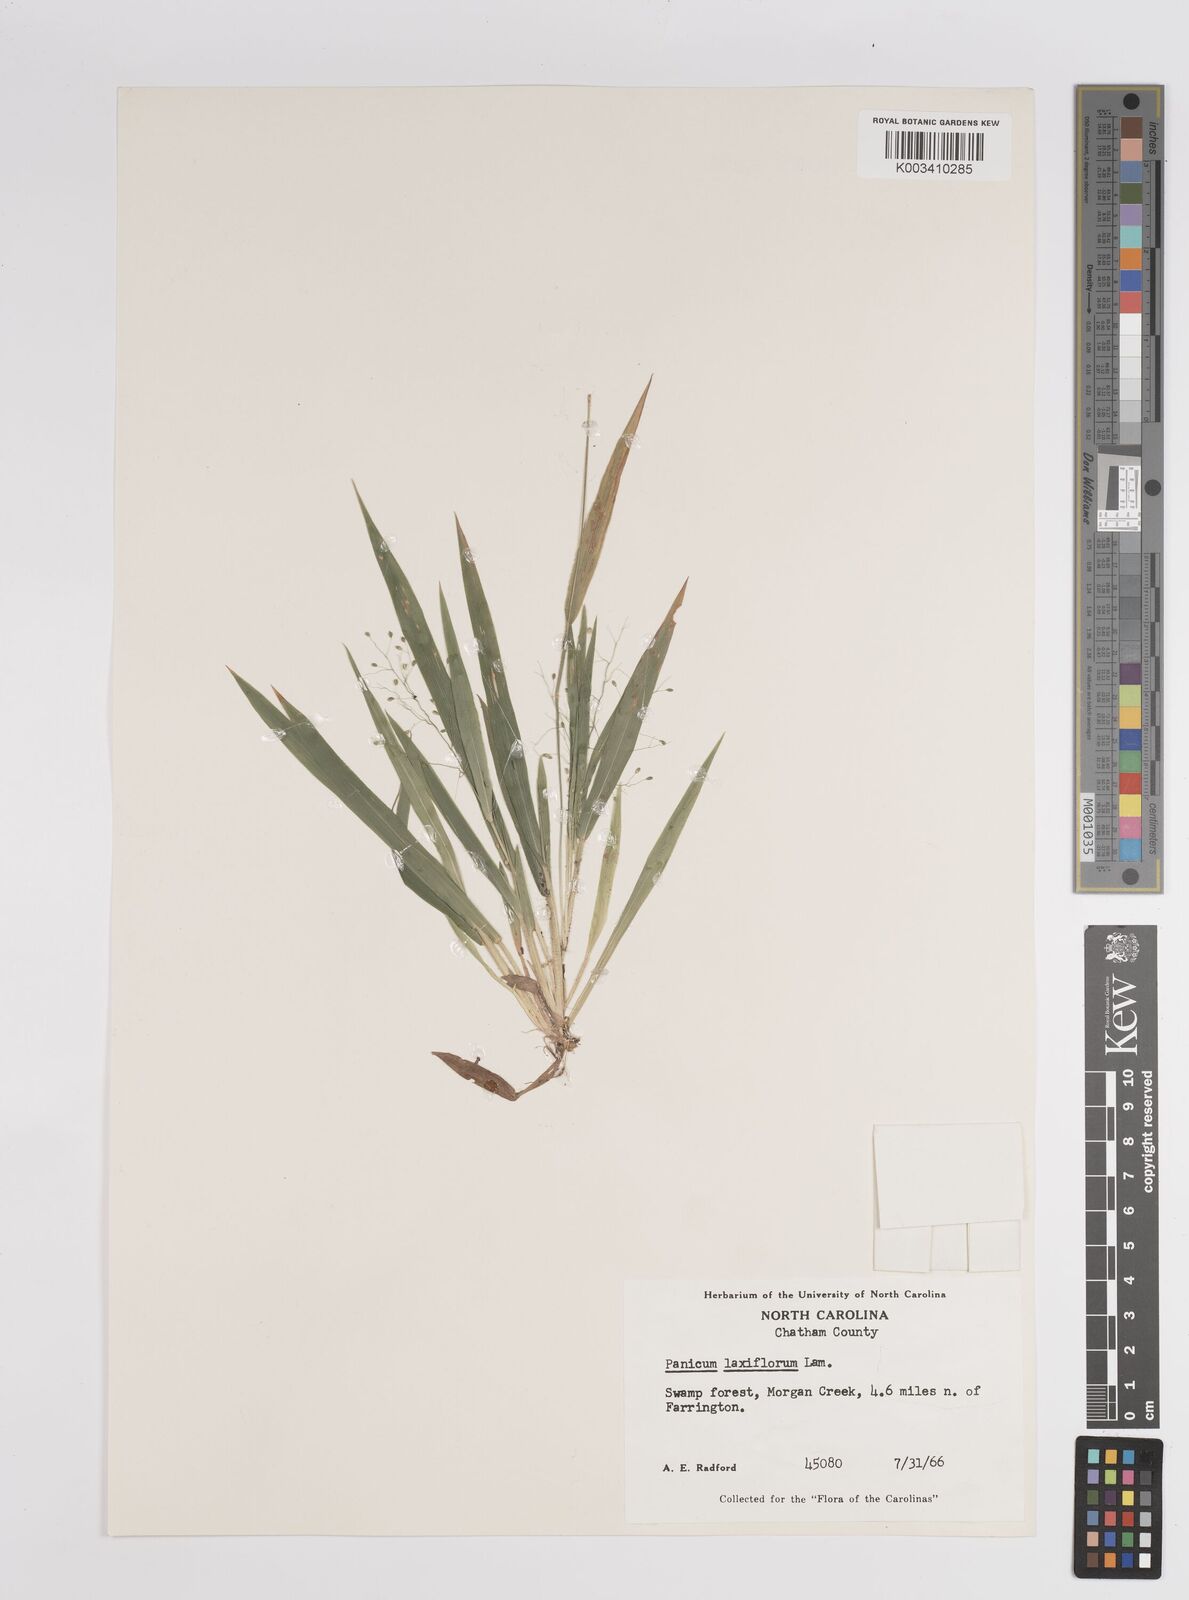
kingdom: Plantae
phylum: Tracheophyta
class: Liliopsida
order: Poales
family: Poaceae
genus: Dichanthelium
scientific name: Dichanthelium laxiflorum
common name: Soft-tuft panic grass
